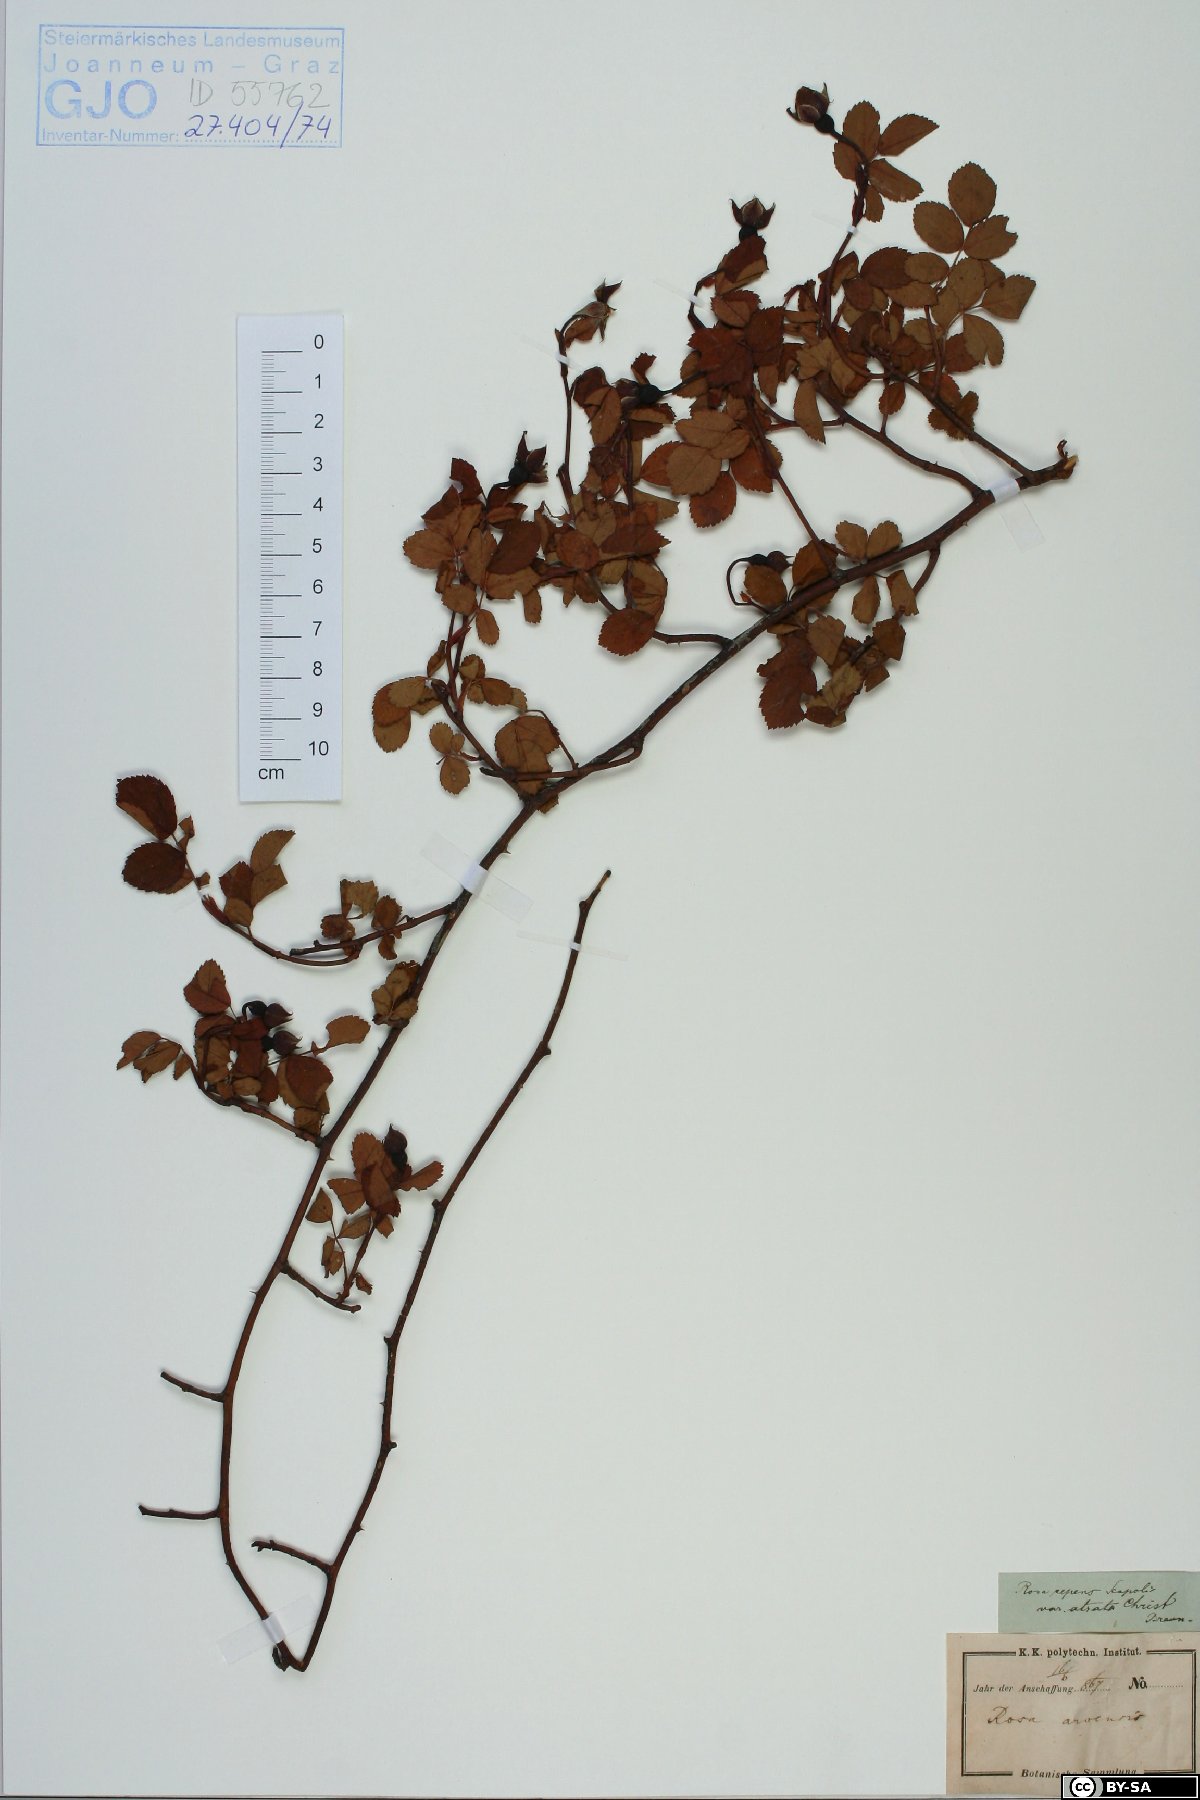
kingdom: Plantae
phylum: Tracheophyta
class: Magnoliopsida
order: Rosales
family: Rosaceae
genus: Rosa
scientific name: Rosa arvensis
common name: Field rose
